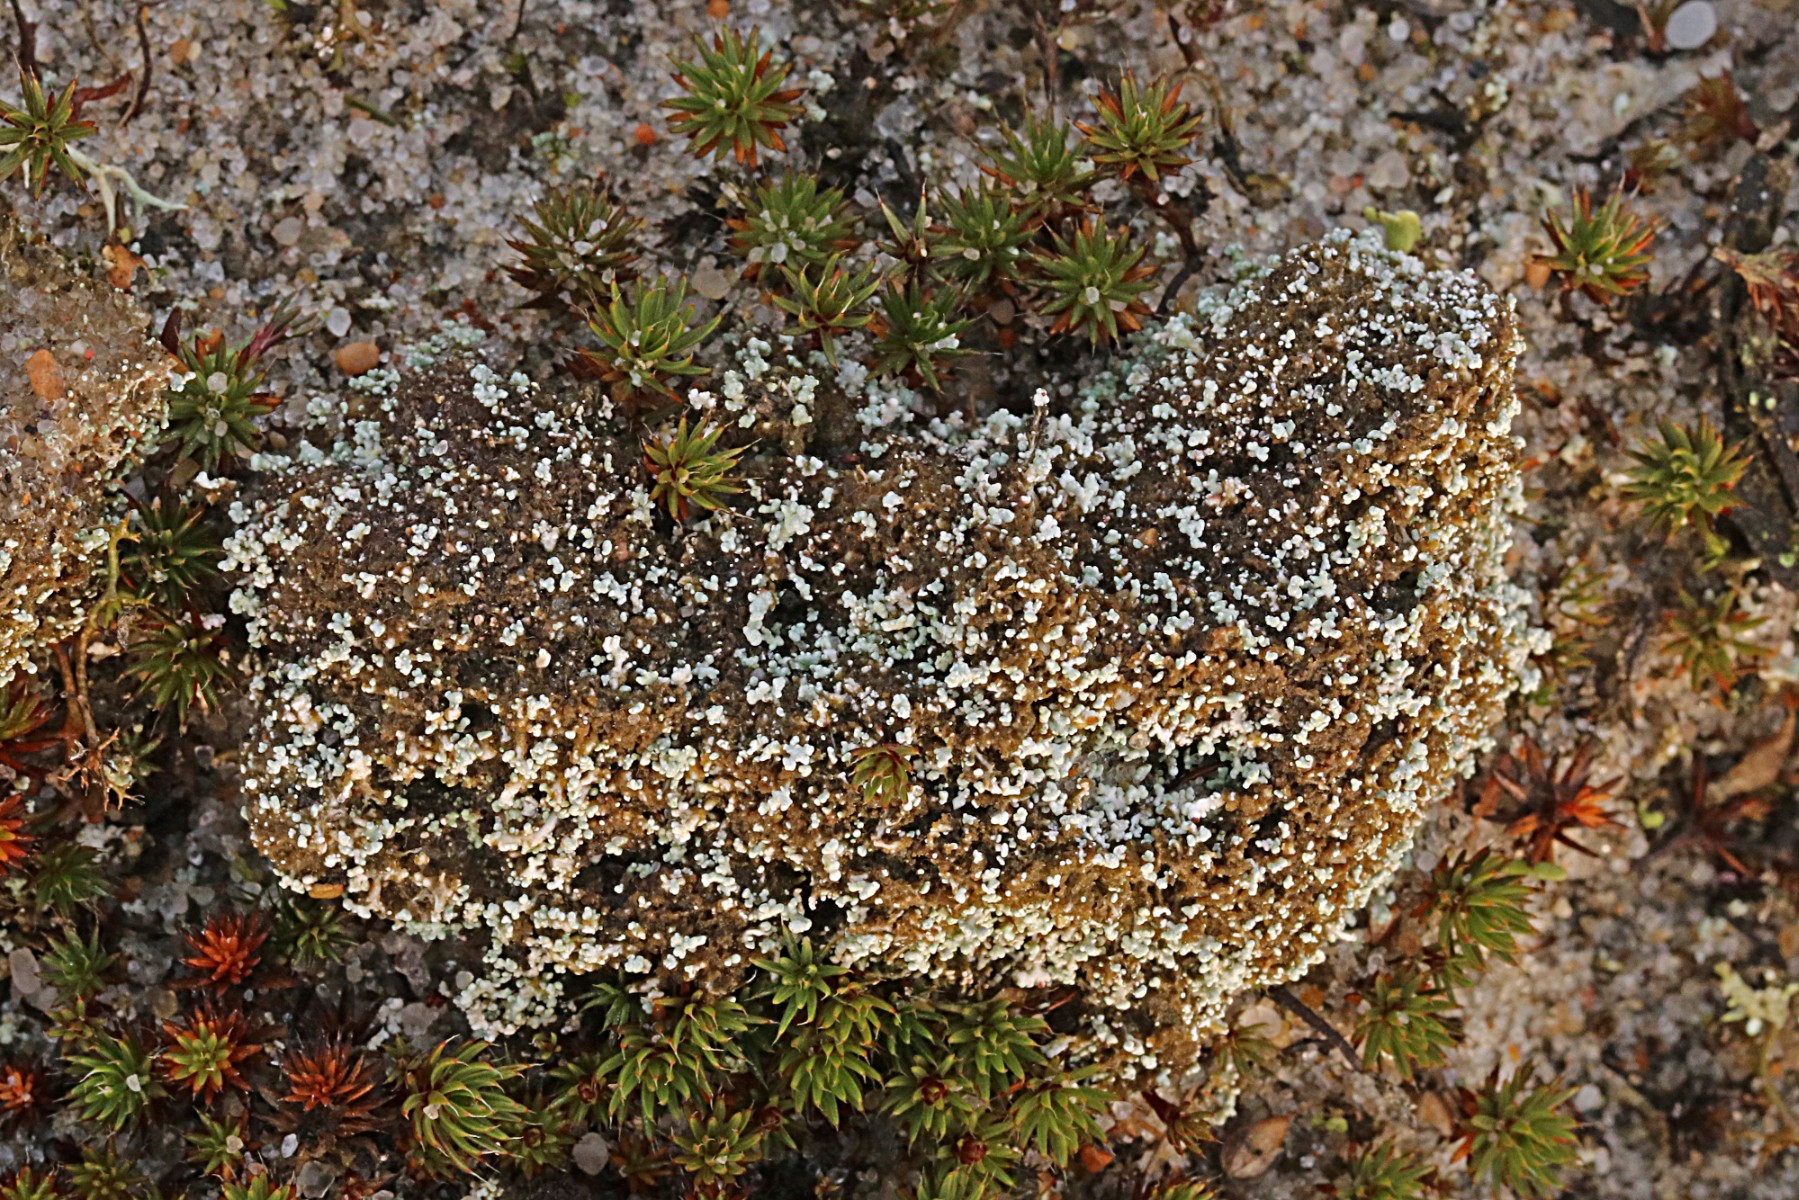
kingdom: Fungi
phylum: Ascomycota
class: Lecanoromycetes
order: Lecanorales
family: Stereocaulaceae
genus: Stereocaulon
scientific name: Stereocaulon condensatum
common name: lav korallav
